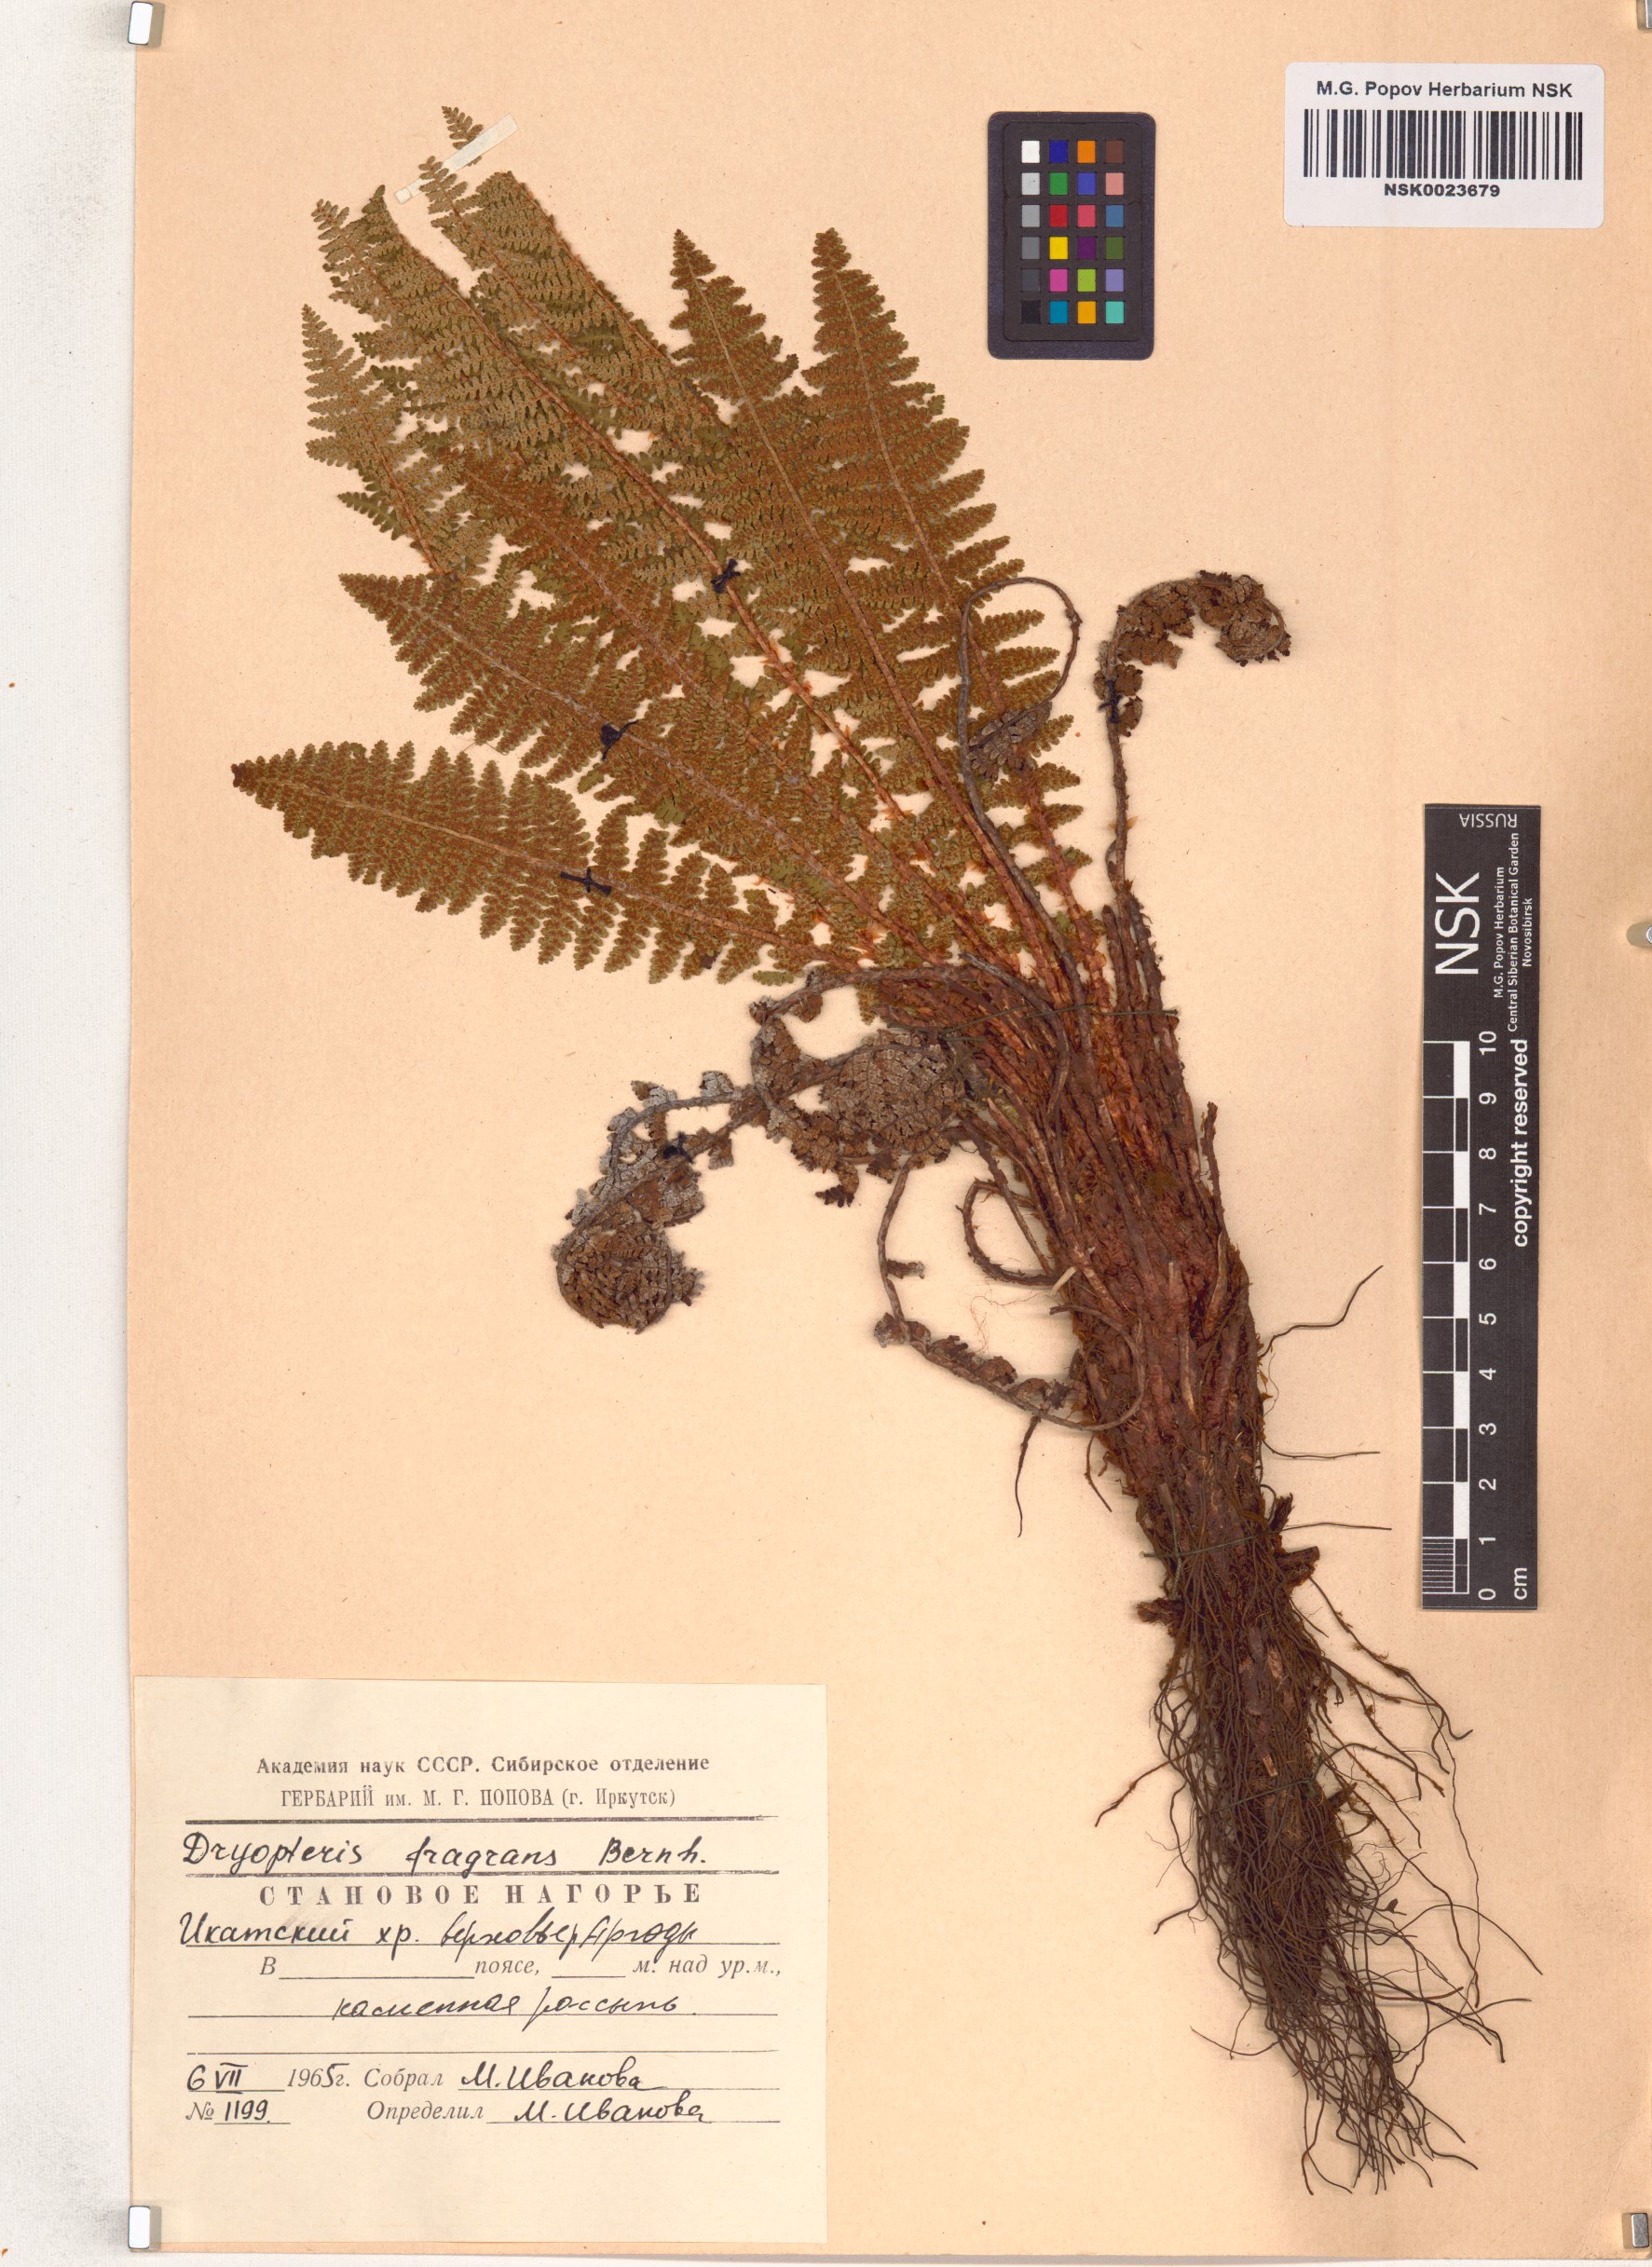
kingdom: Plantae
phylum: Tracheophyta
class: Polypodiopsida
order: Polypodiales
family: Dryopteridaceae
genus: Dryopteris
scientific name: Dryopteris fragrans
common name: Fragrant wood fern
